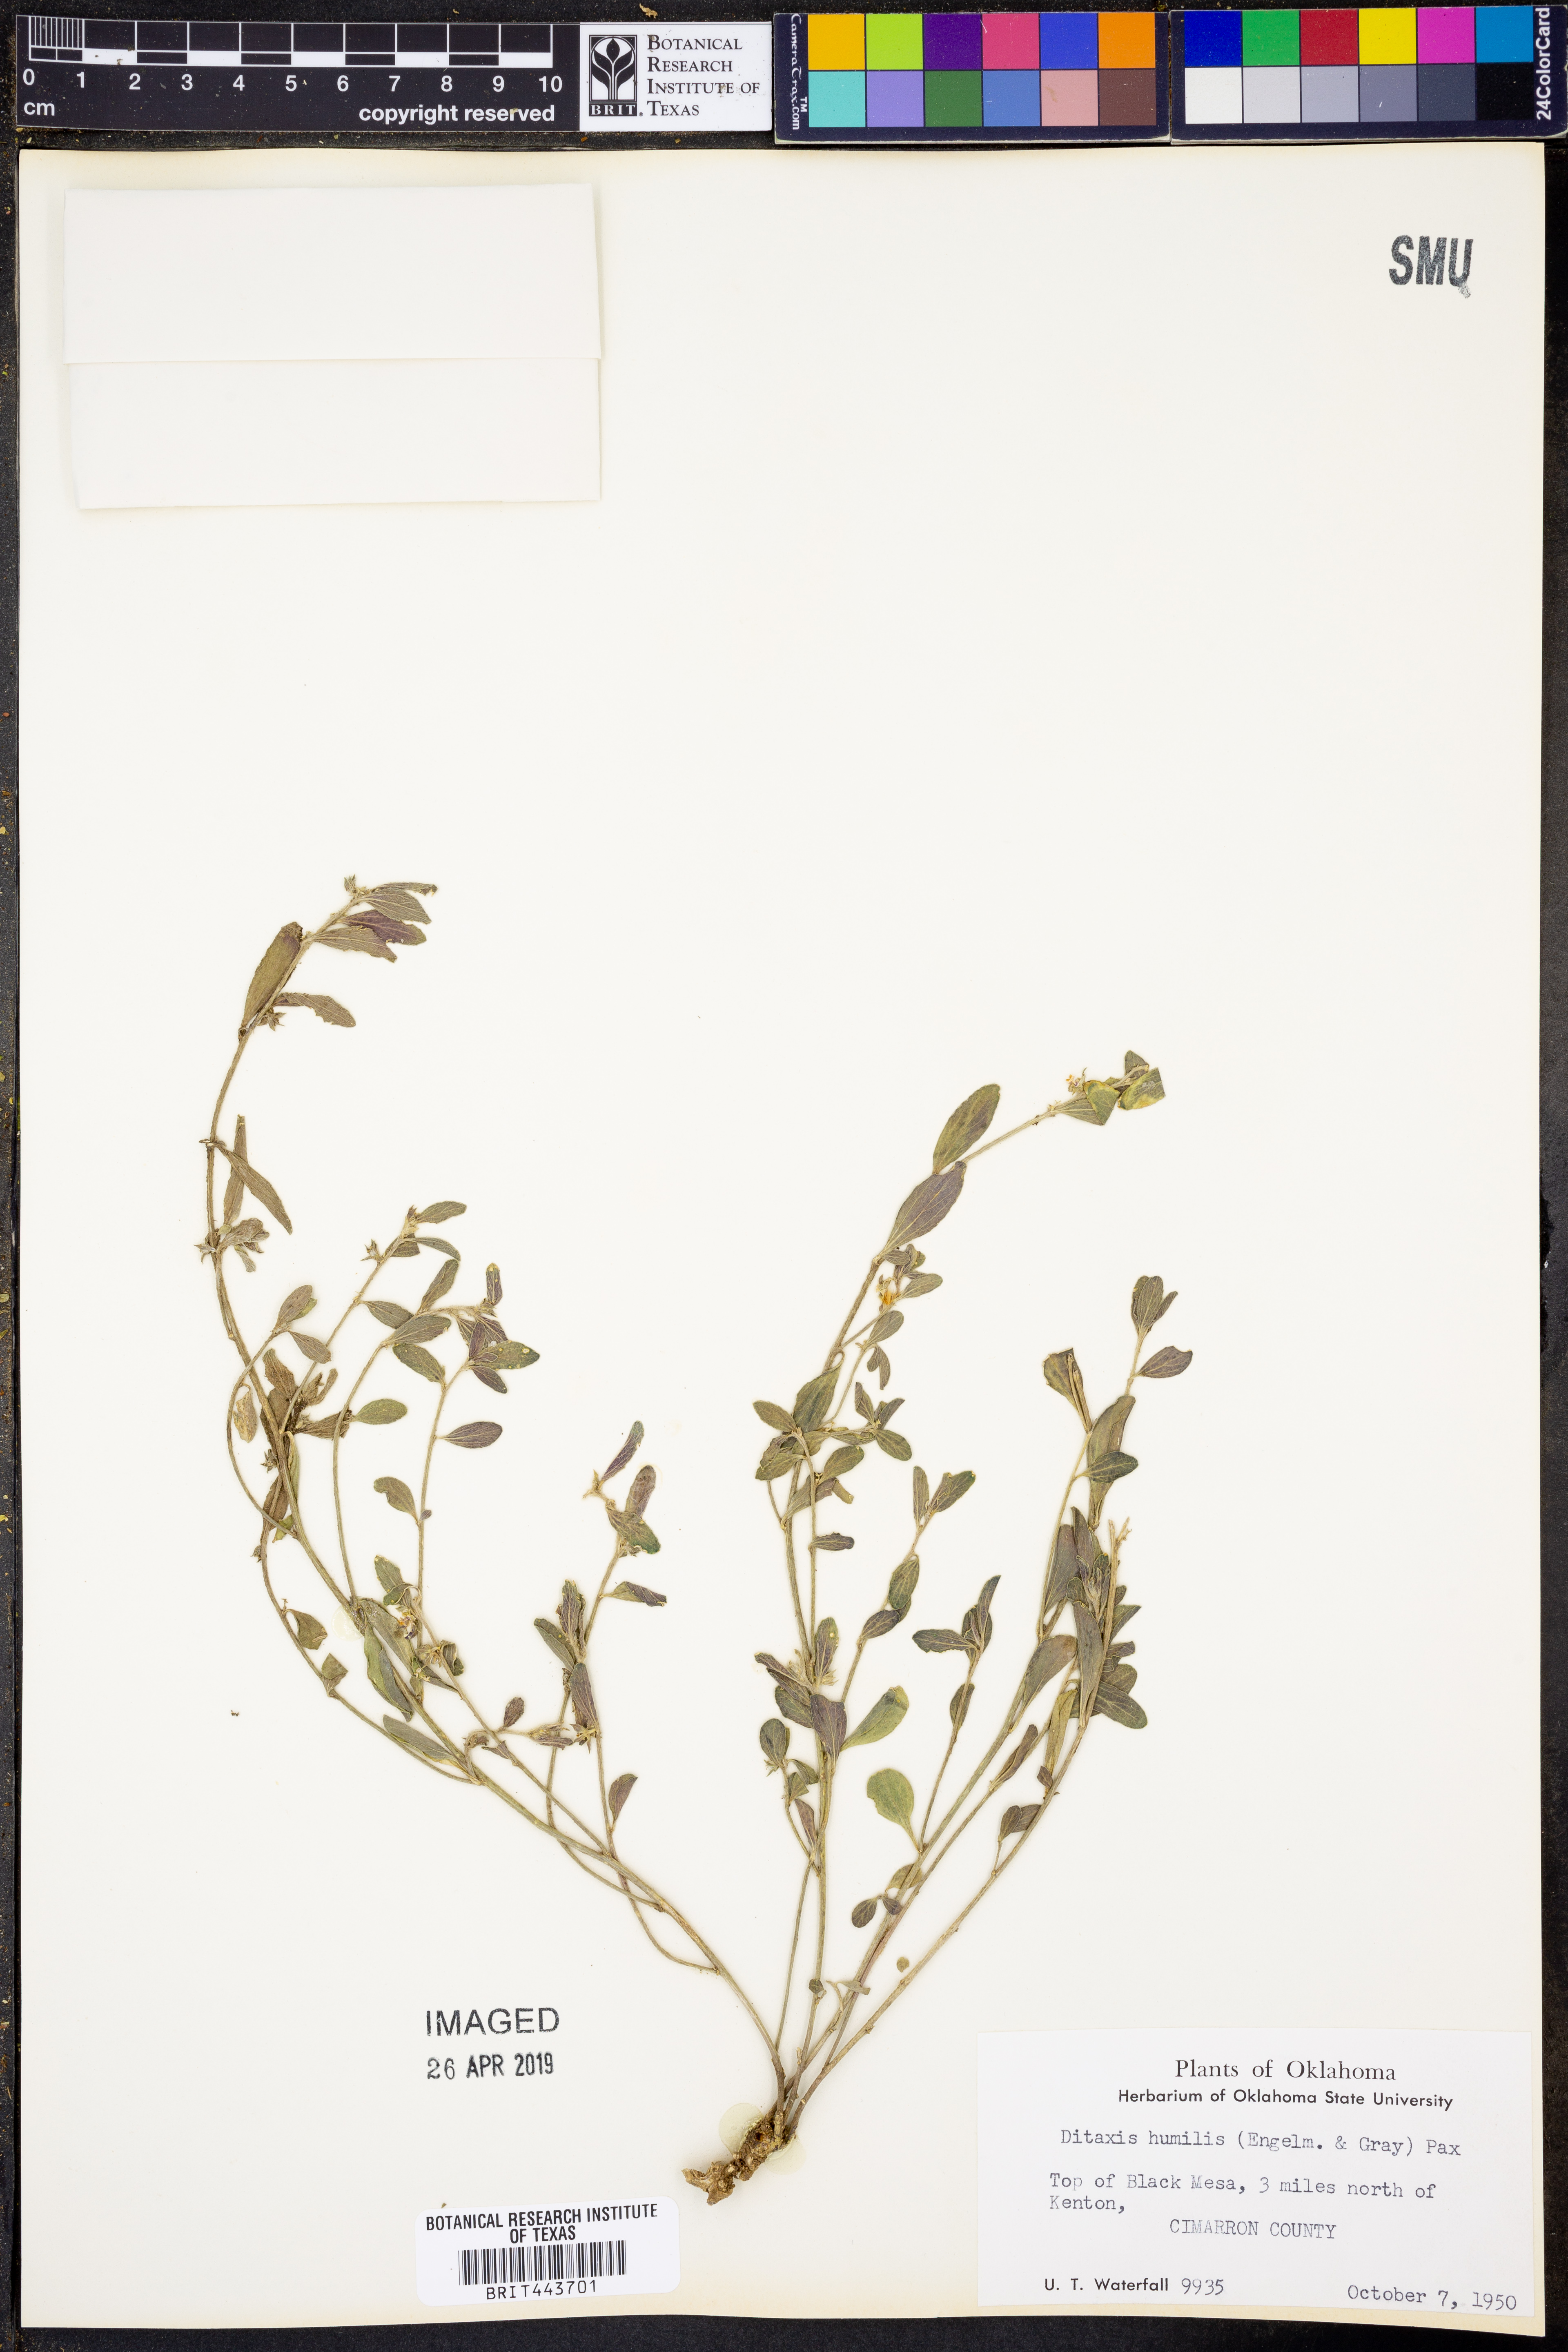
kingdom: Plantae
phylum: Tracheophyta
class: Magnoliopsida
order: Malpighiales
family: Euphorbiaceae
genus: Ditaxis
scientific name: Ditaxis humilis
